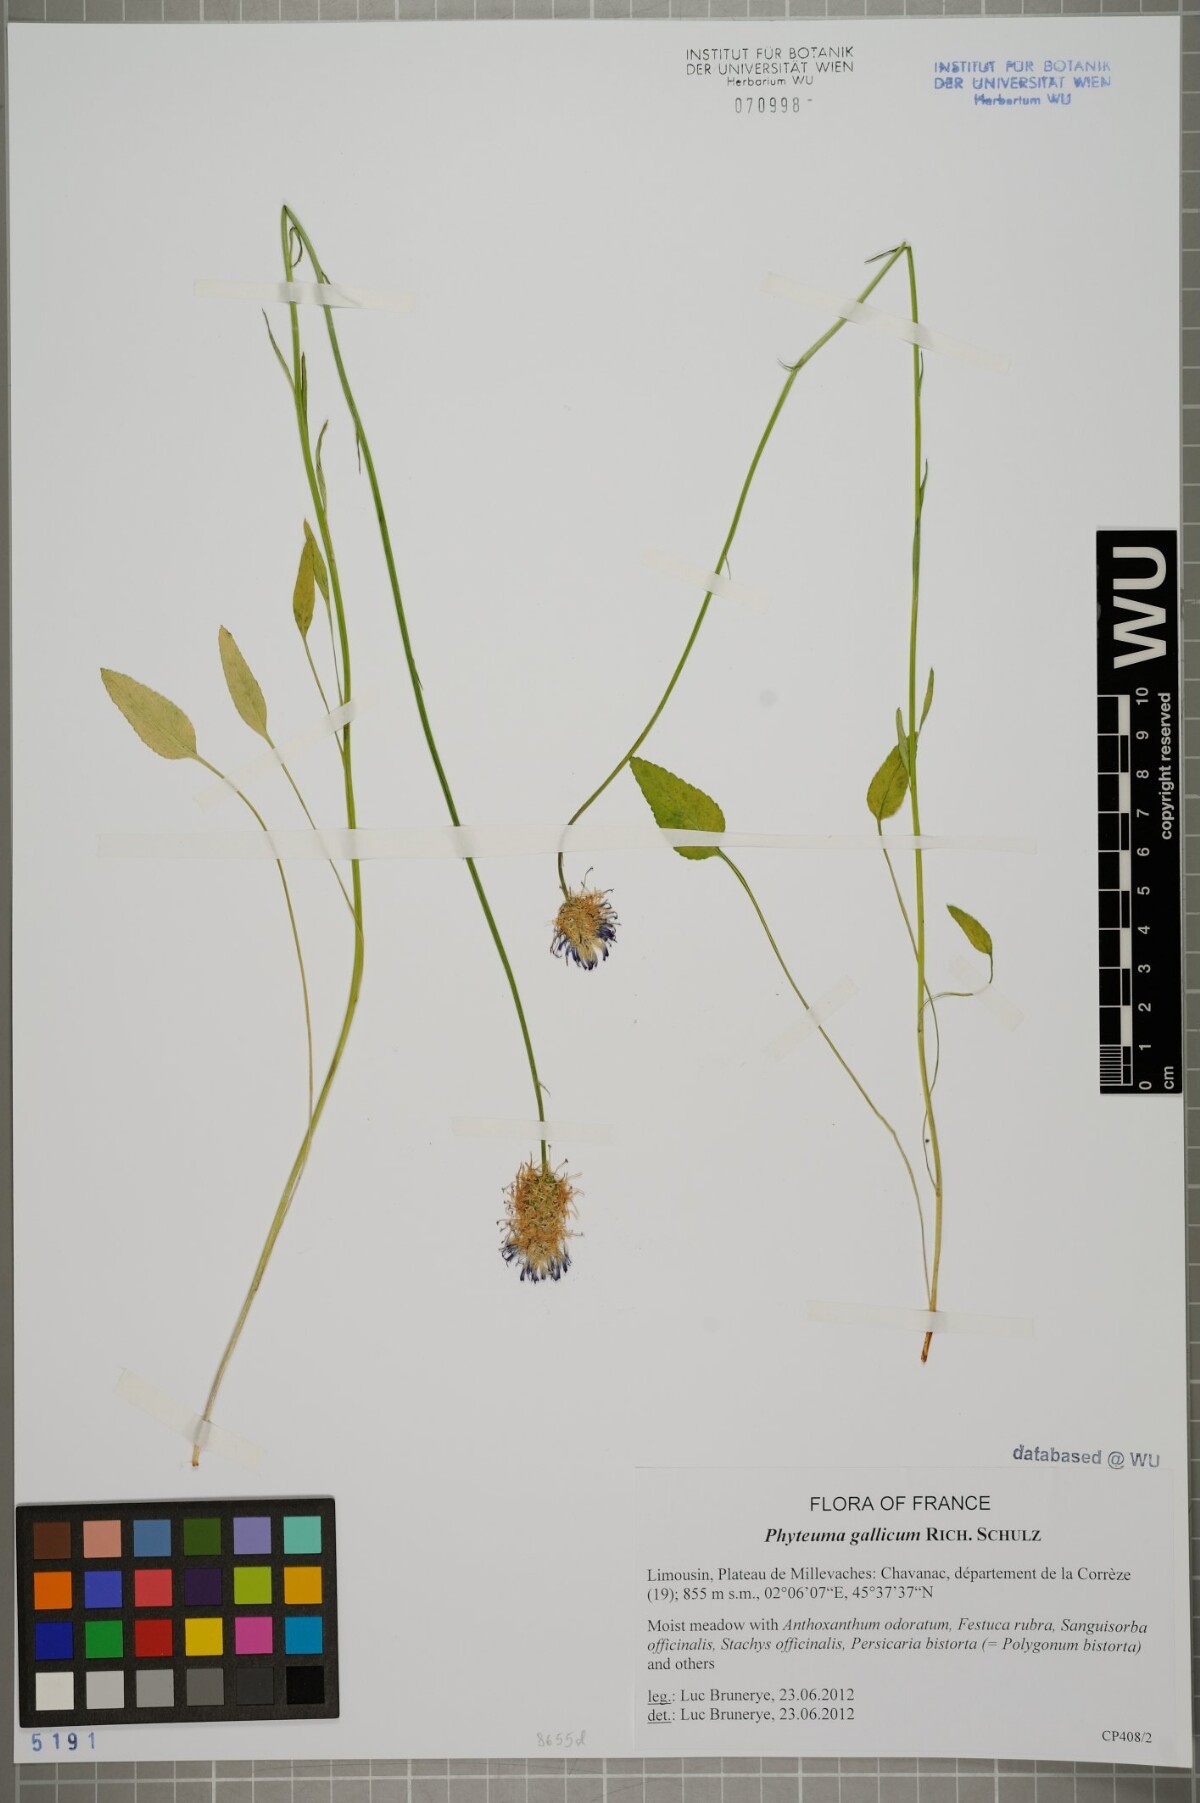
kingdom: Plantae
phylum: Tracheophyta
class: Magnoliopsida
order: Asterales
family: Campanulaceae
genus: Phyteuma
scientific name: Phyteuma gallicum
